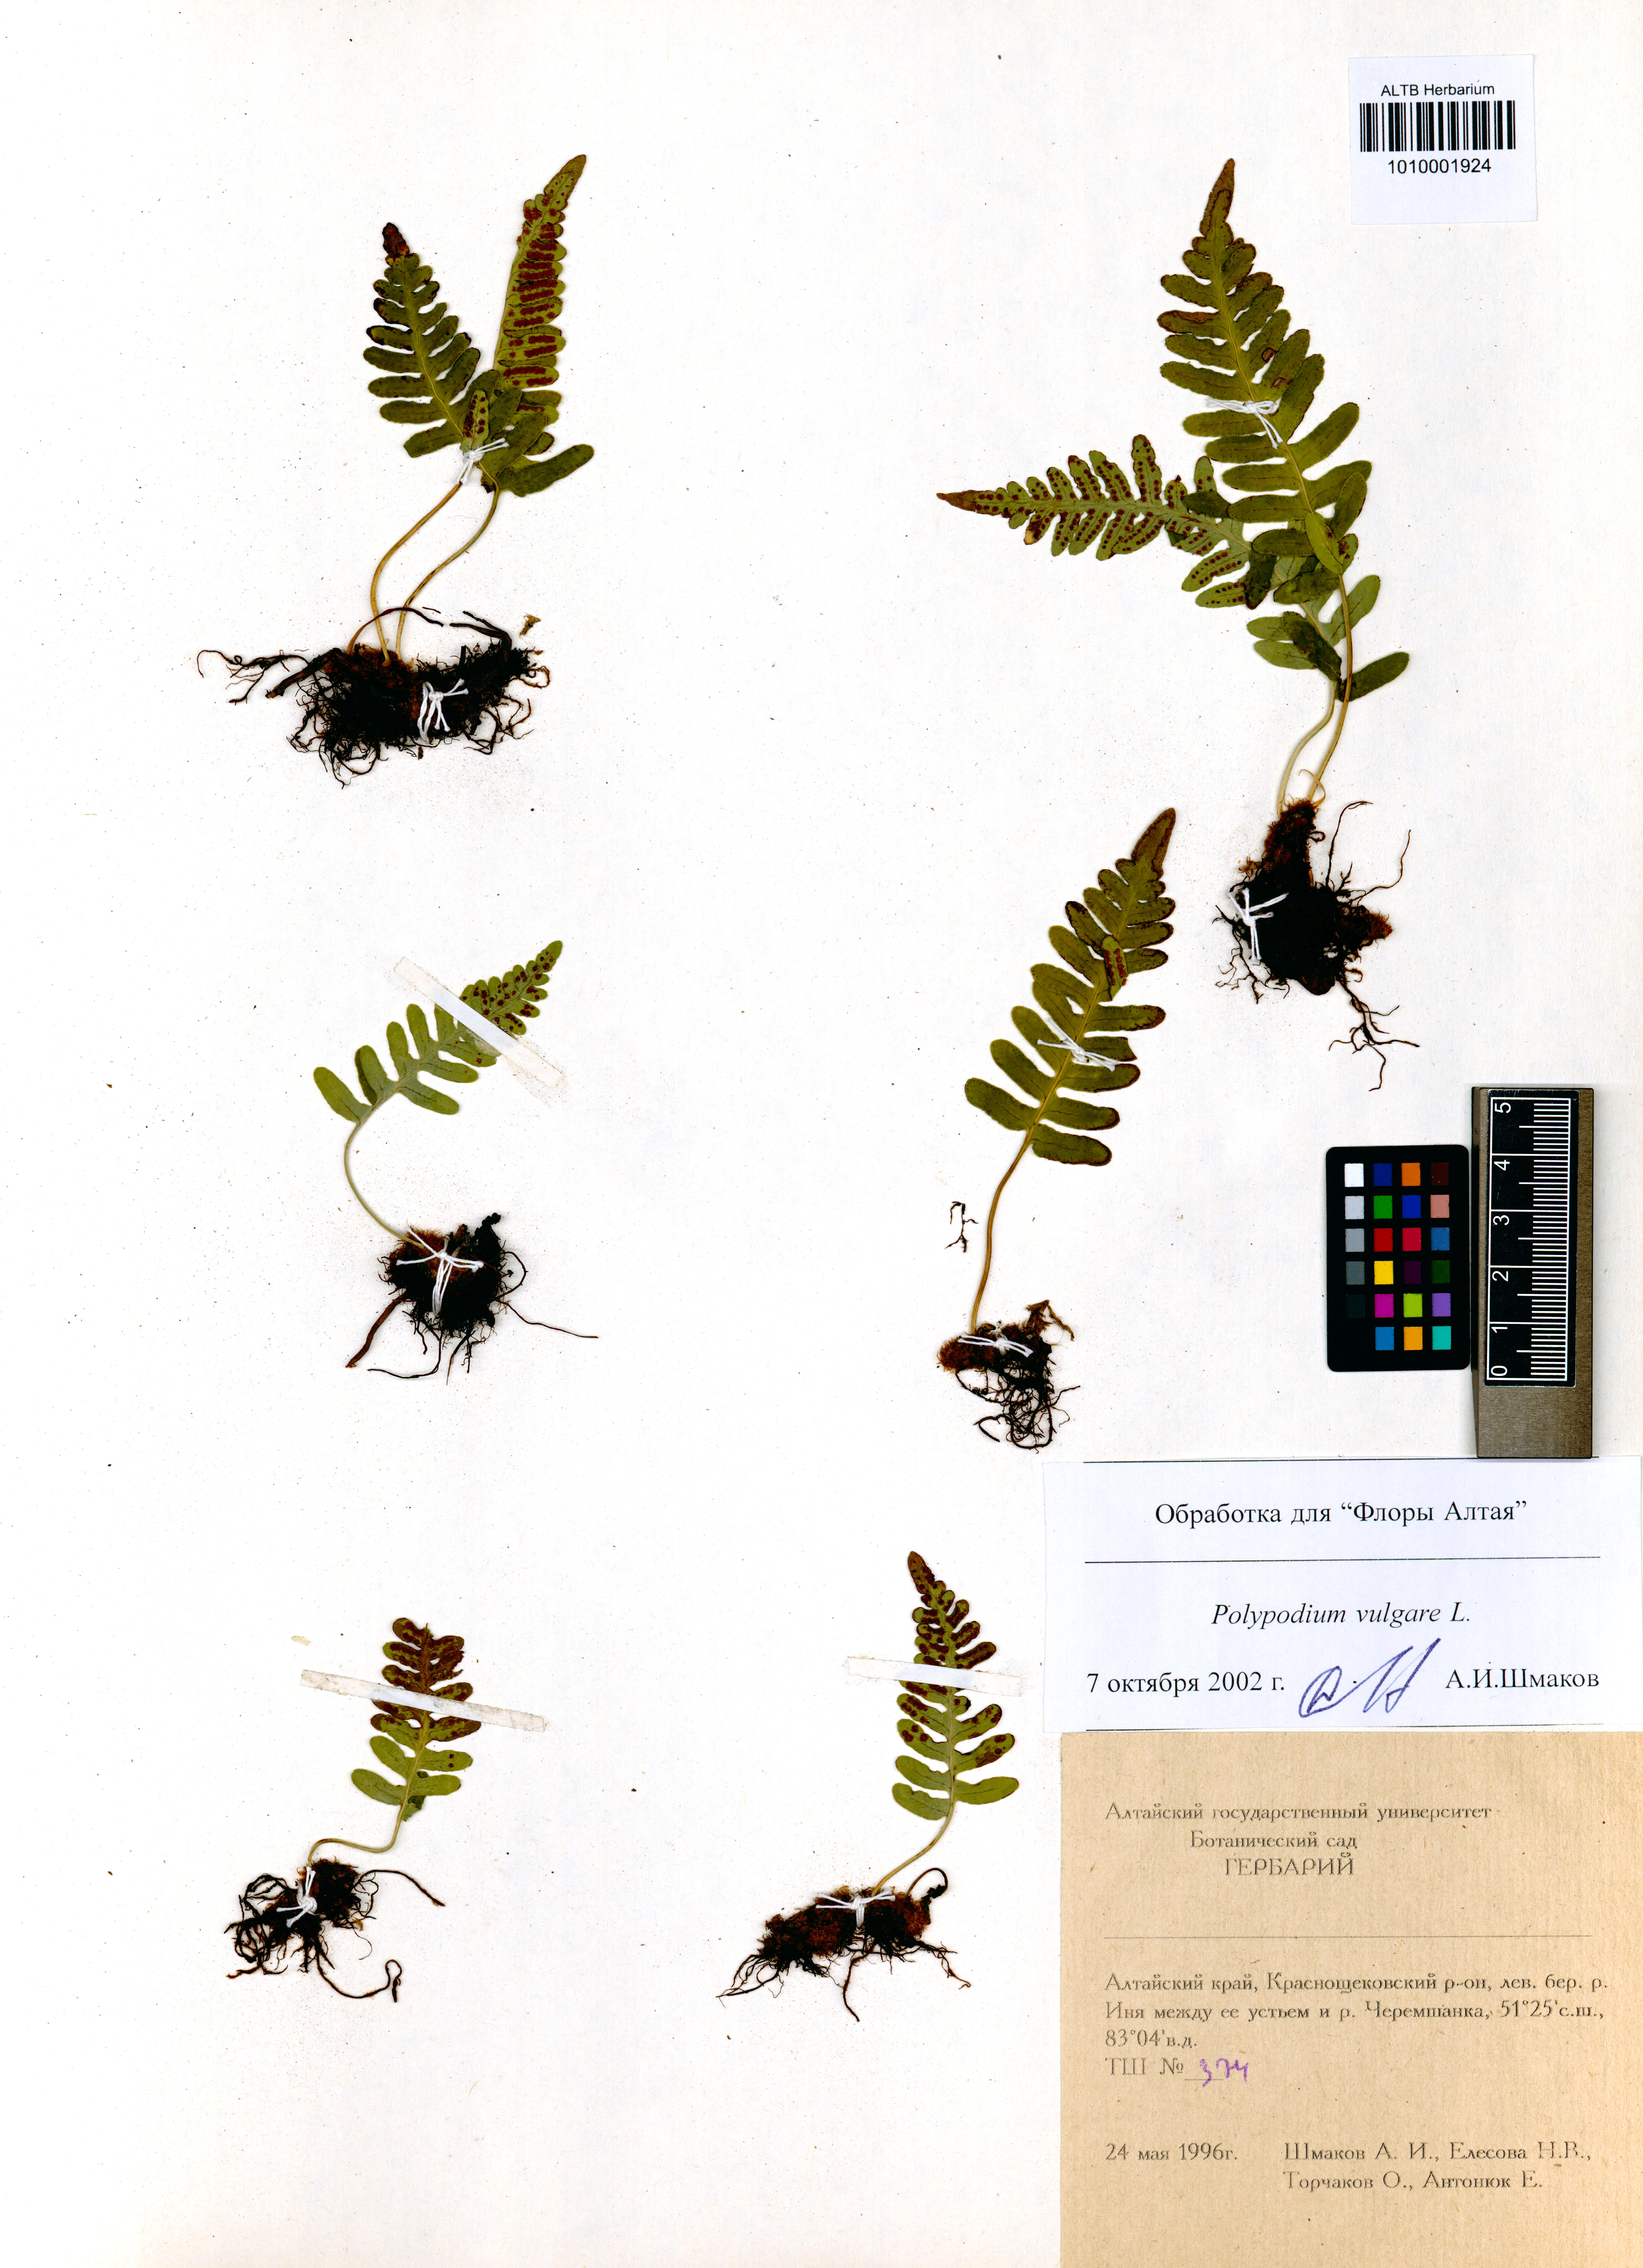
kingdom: Plantae
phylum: Tracheophyta
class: Polypodiopsida
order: Polypodiales
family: Polypodiaceae
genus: Polypodium
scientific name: Polypodium vulgare
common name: Common polypody
